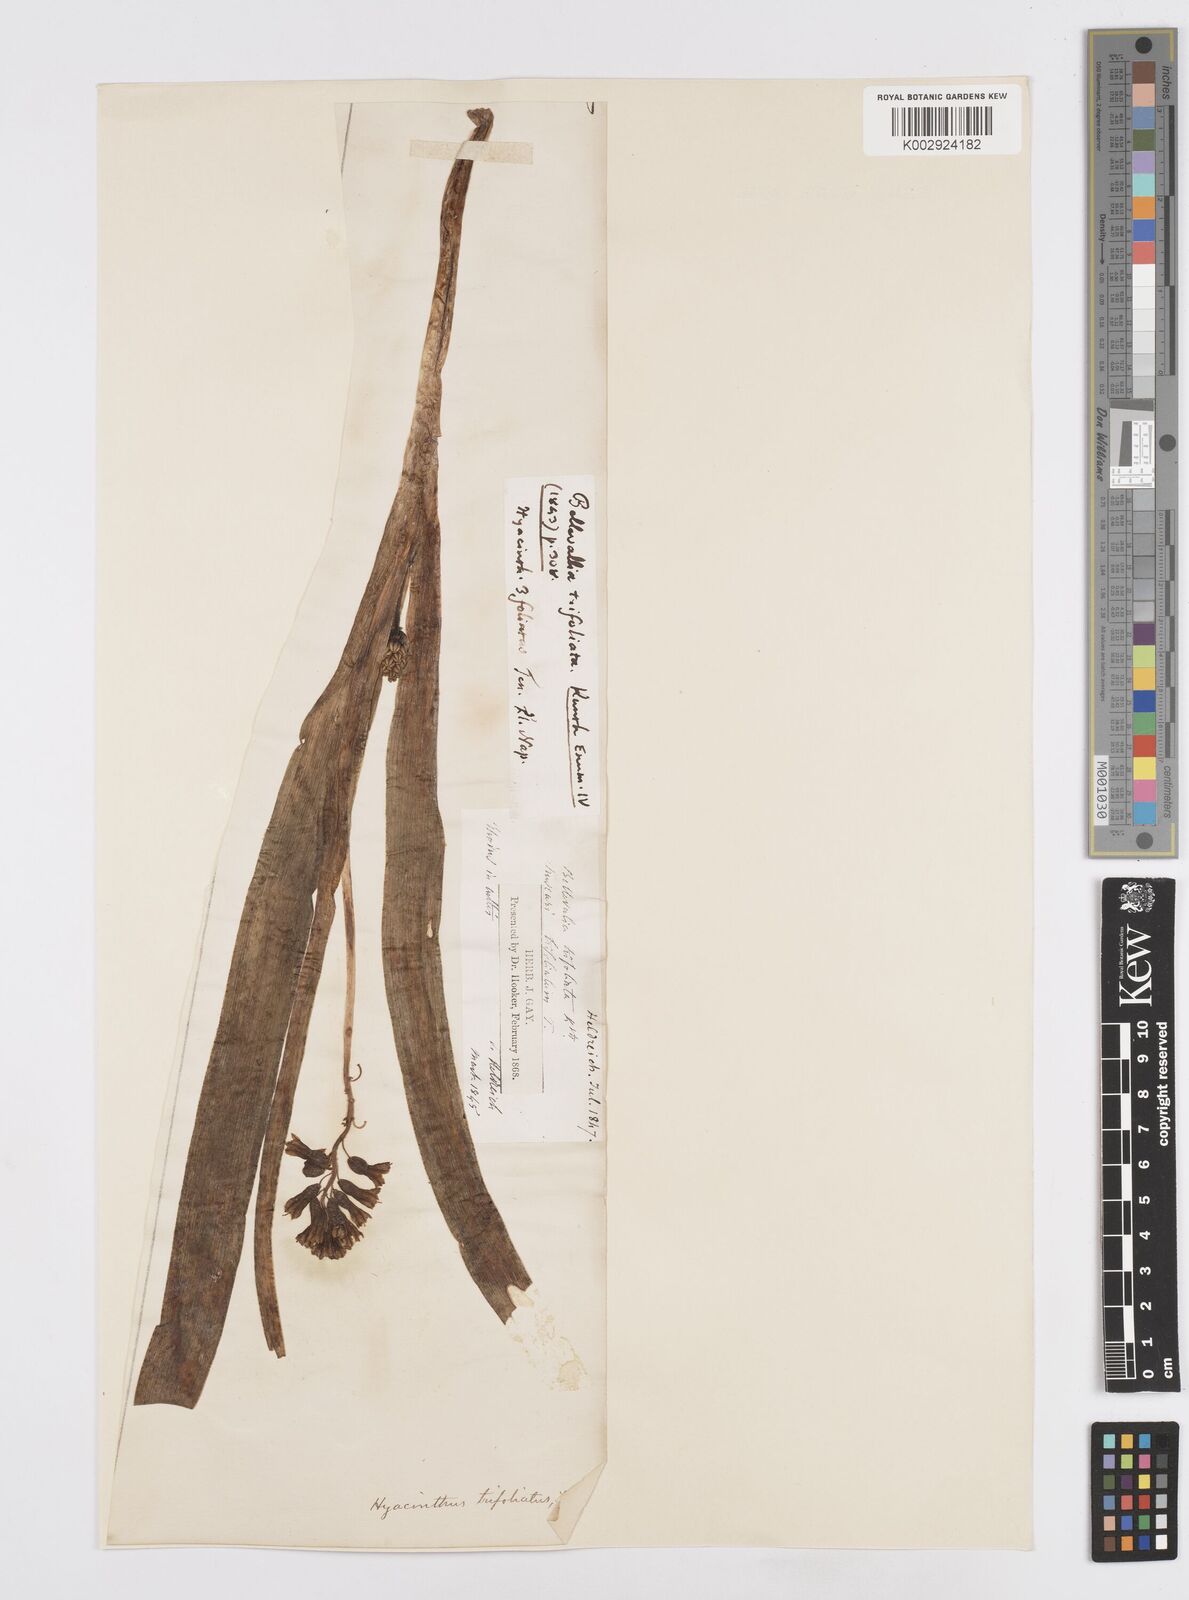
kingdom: Plantae
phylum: Tracheophyta
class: Liliopsida
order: Asparagales
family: Asparagaceae
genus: Bellevalia
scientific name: Bellevalia
